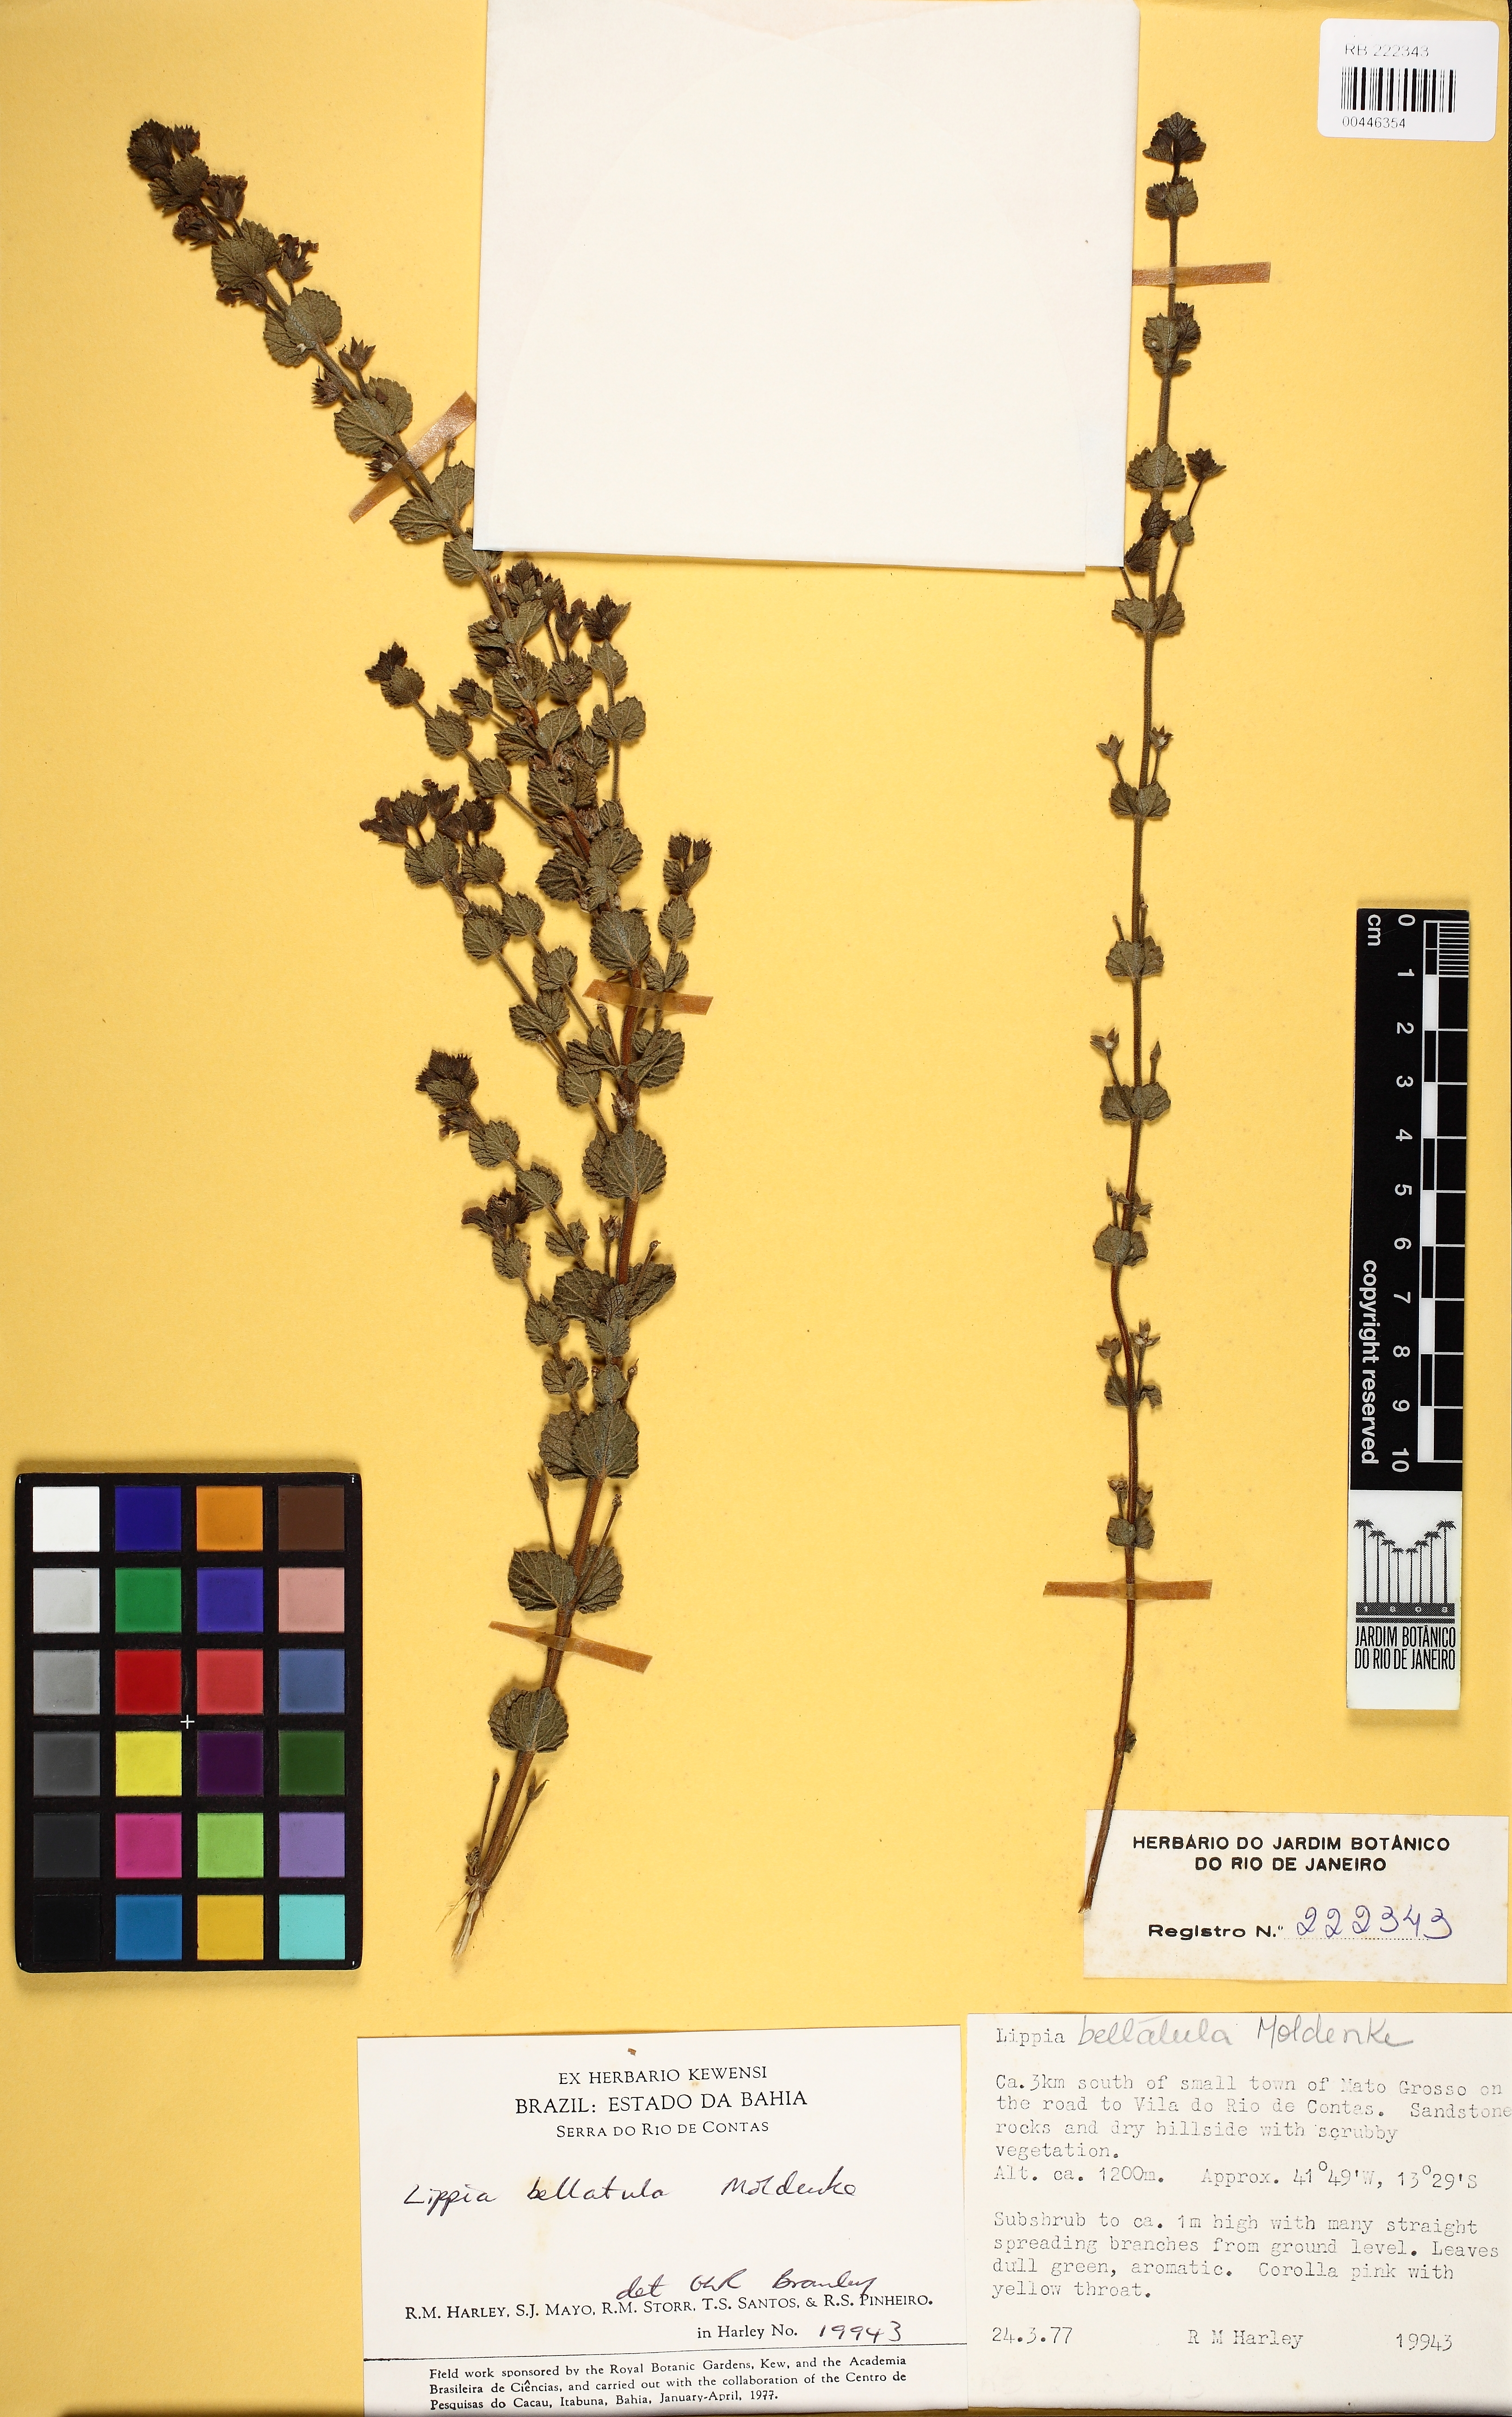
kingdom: Plantae
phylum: Tracheophyta
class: Magnoliopsida
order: Lamiales
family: Verbenaceae
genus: Lippia
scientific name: Lippia bellatula
